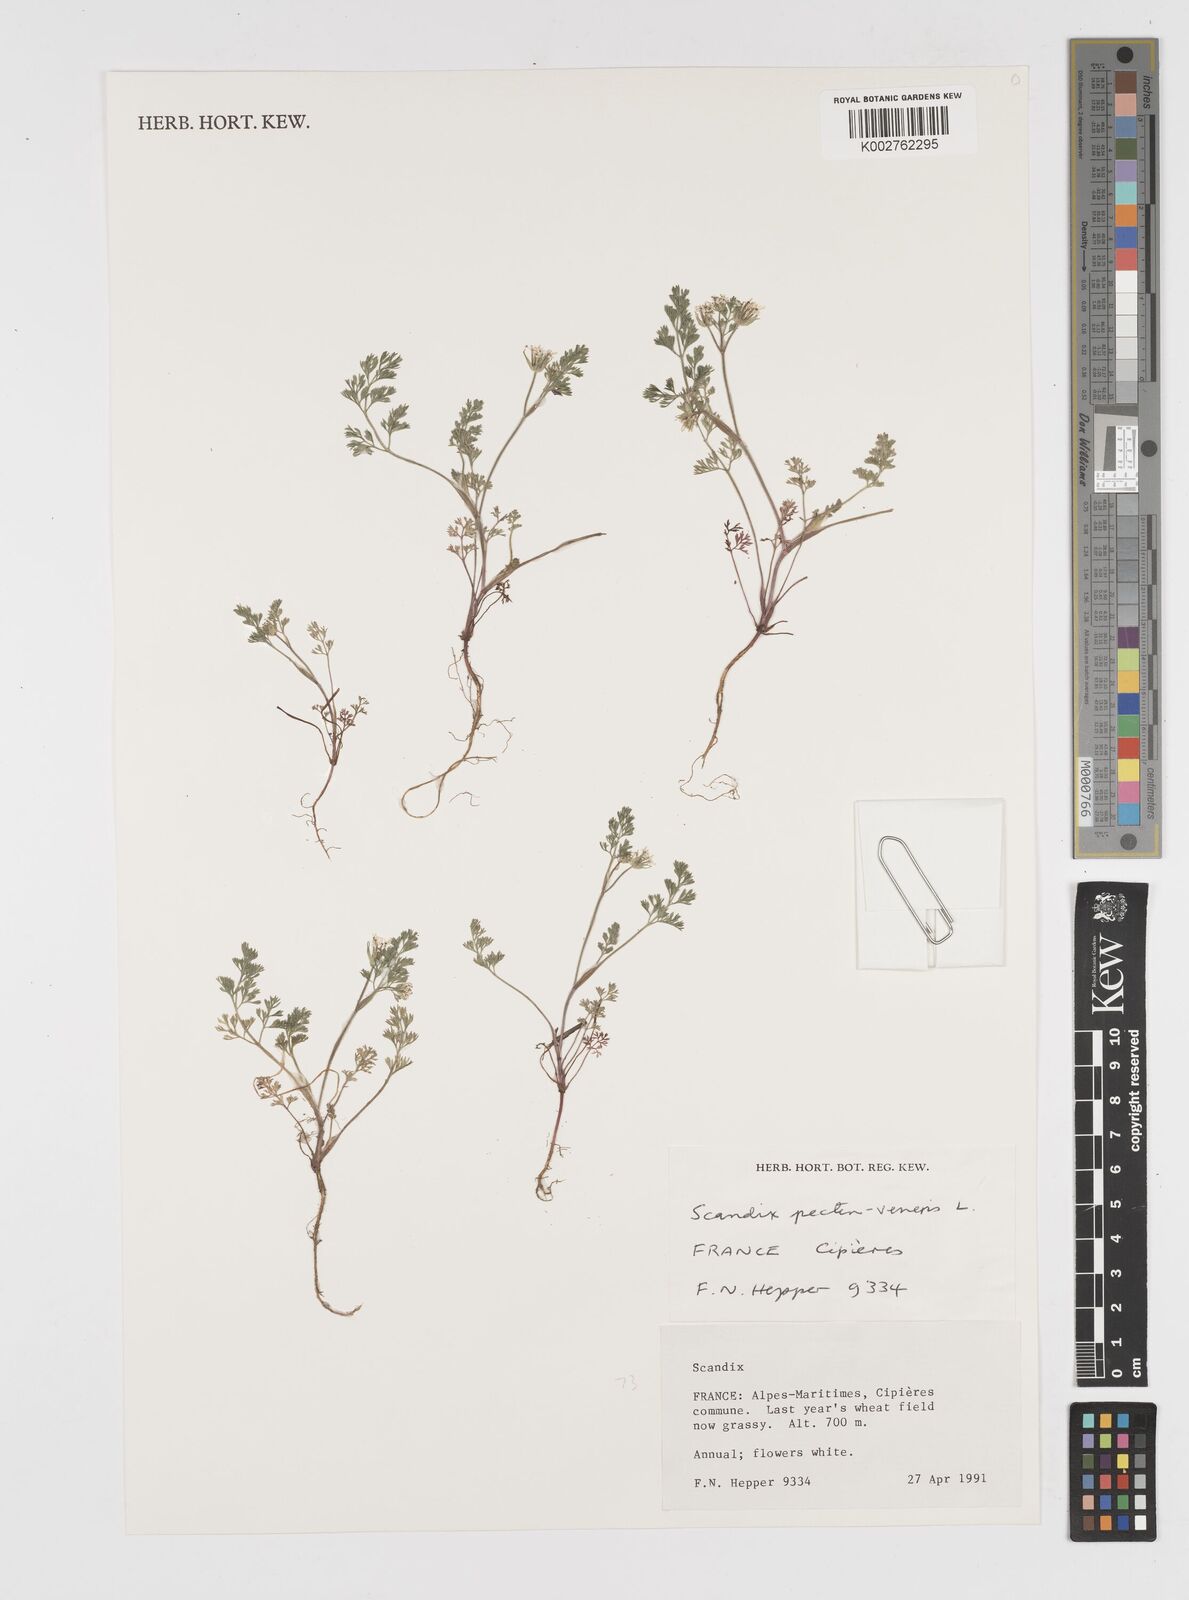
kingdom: Plantae
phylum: Tracheophyta
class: Magnoliopsida
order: Apiales
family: Apiaceae
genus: Scandix
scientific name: Scandix pecten-veneris
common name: Shepherd's-needle
